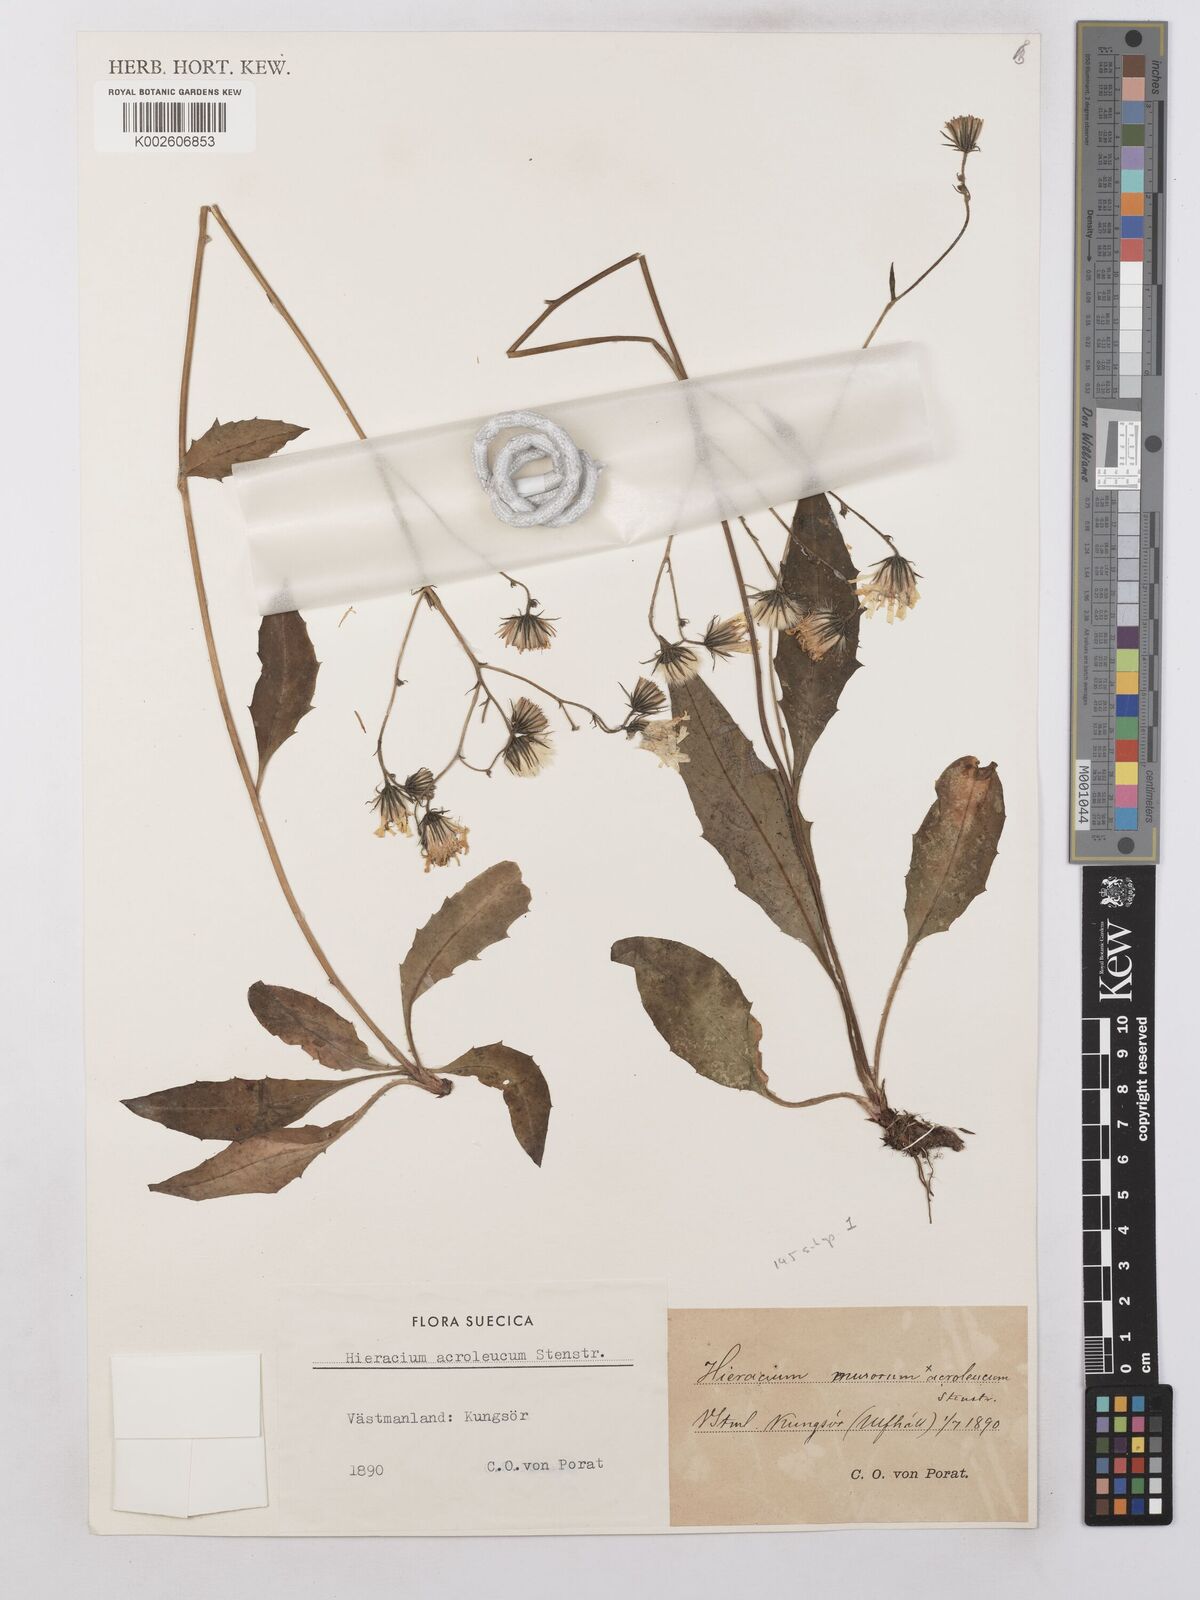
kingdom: Plantae
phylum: Tracheophyta
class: Magnoliopsida
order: Asterales
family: Asteraceae
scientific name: Asteraceae
